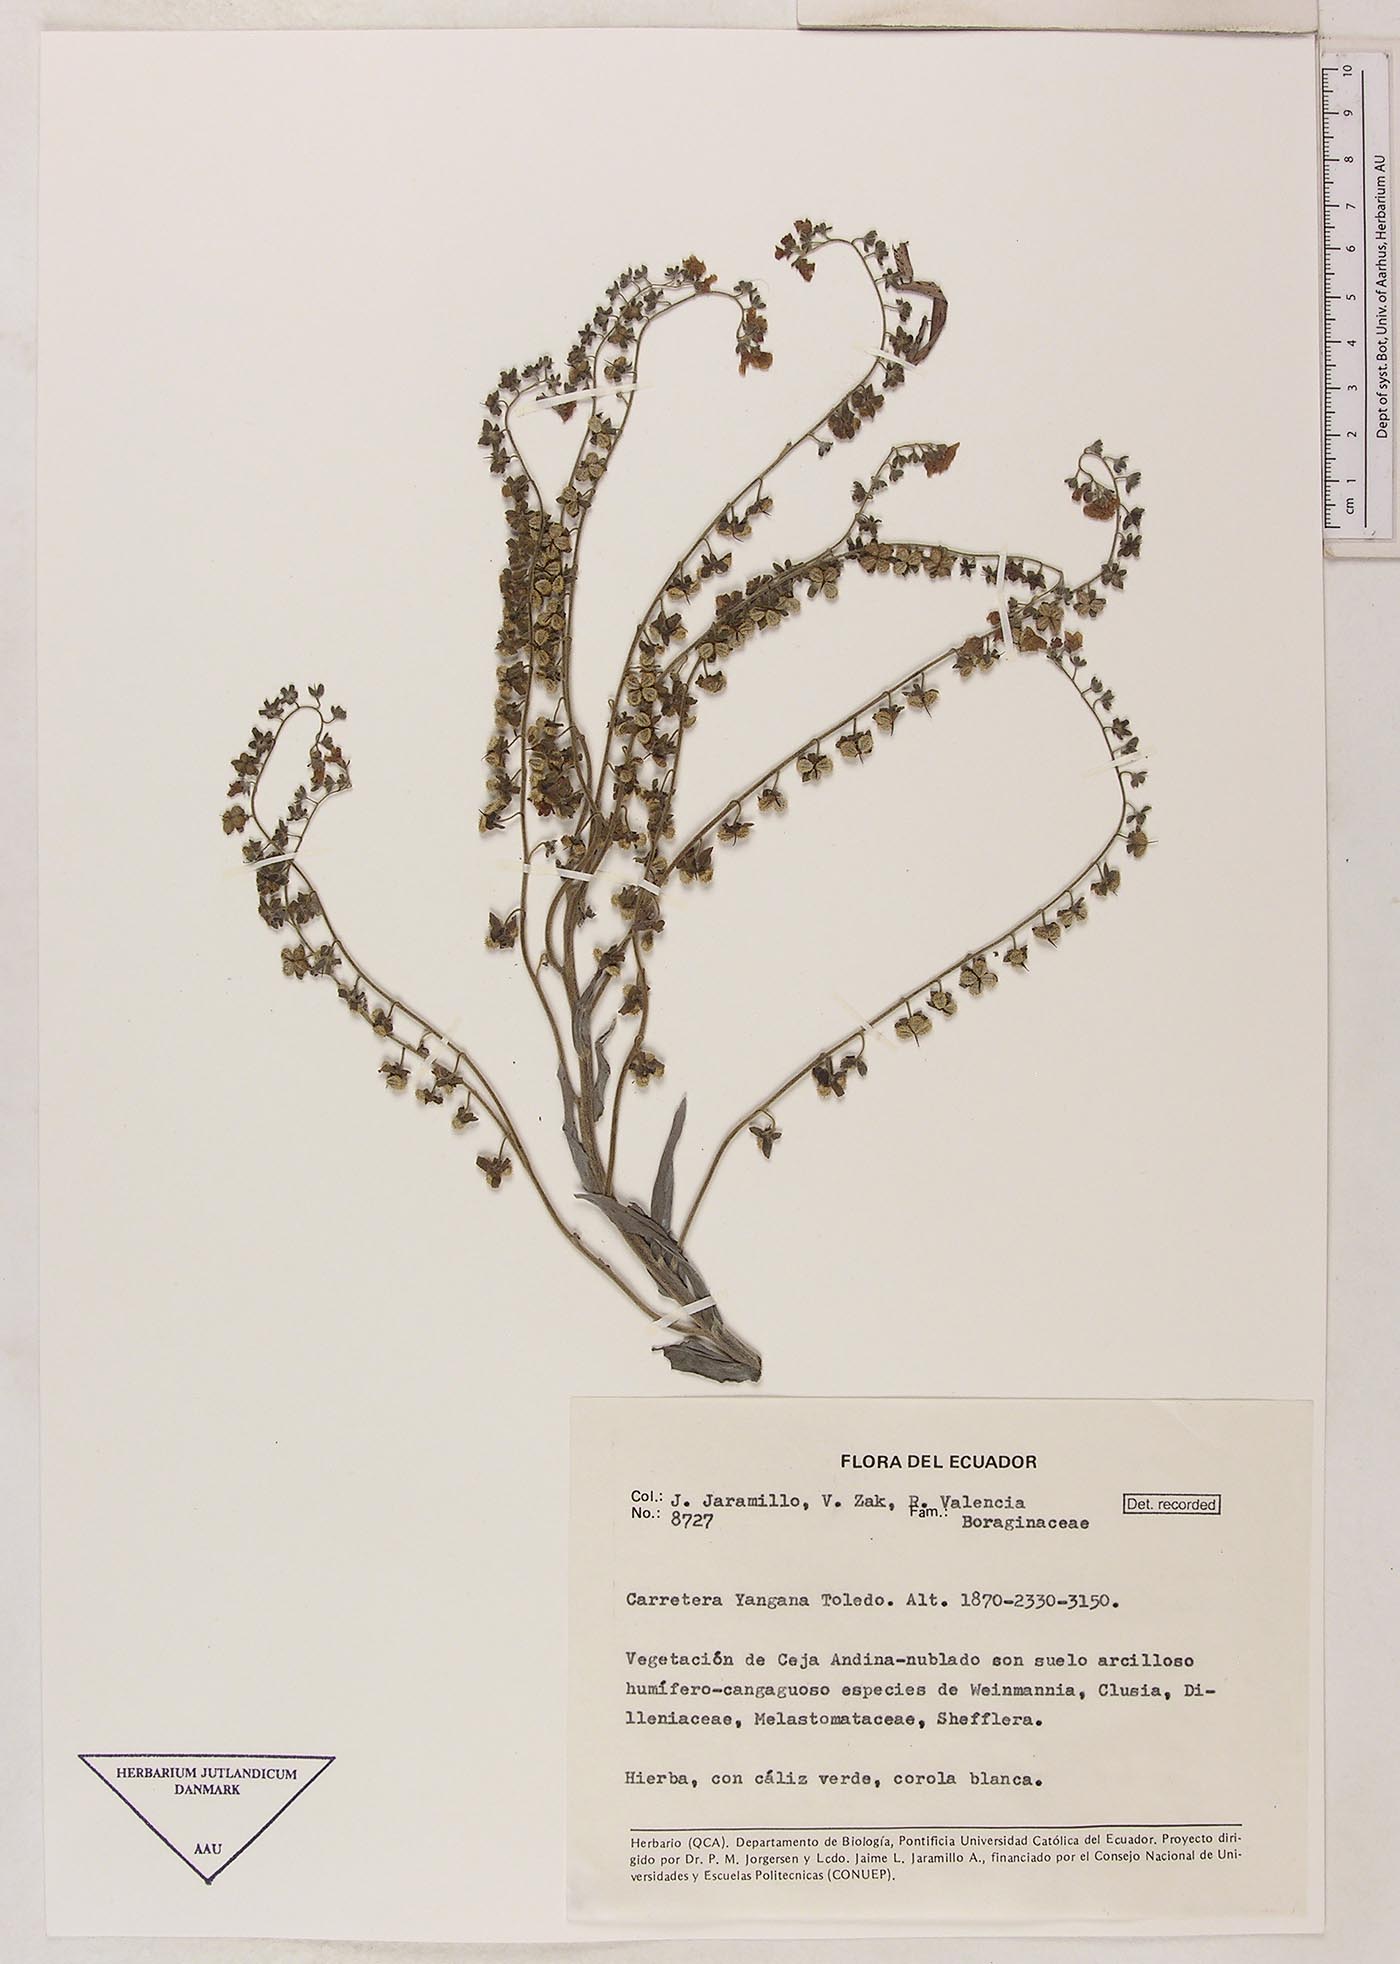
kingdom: Plantae
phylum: Tracheophyta
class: Magnoliopsida
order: Boraginales
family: Boraginaceae
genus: Cynoglossum
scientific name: Cynoglossum amabile
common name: Chinese hound's tongue
